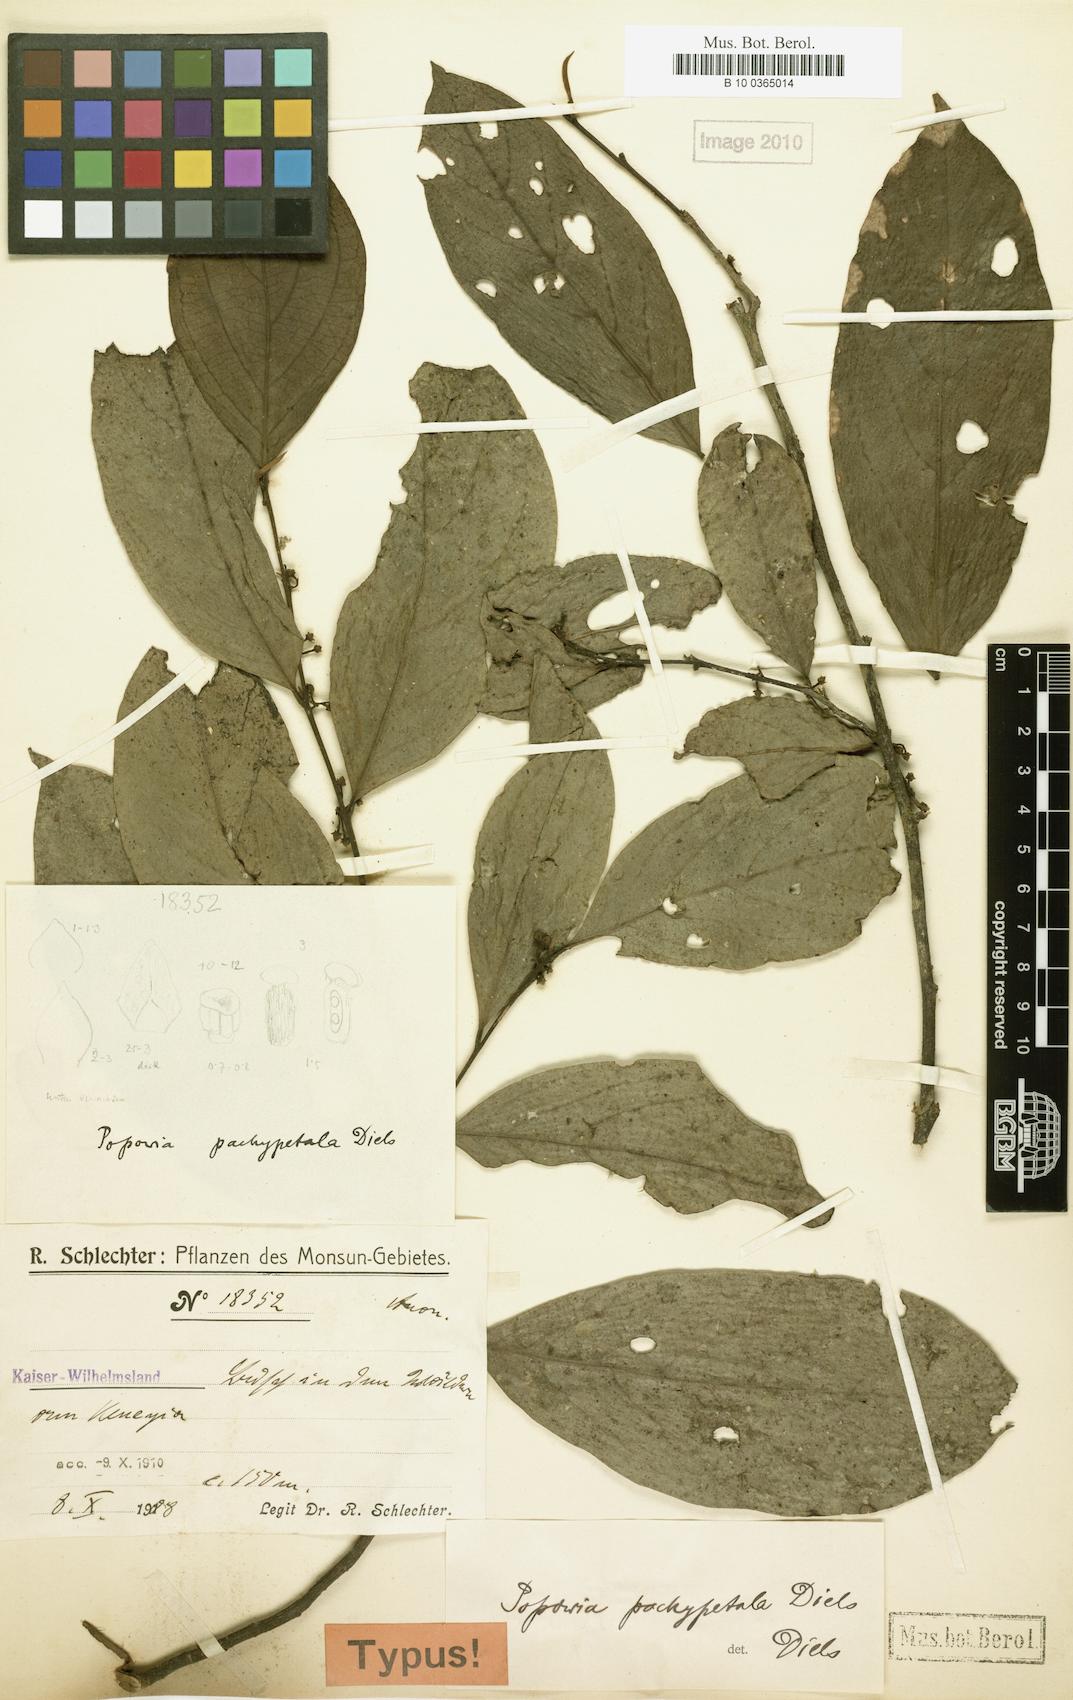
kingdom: Plantae
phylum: Tracheophyta
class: Magnoliopsida
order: Magnoliales
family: Annonaceae
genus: Popowia
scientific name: Popowia pachypetala
